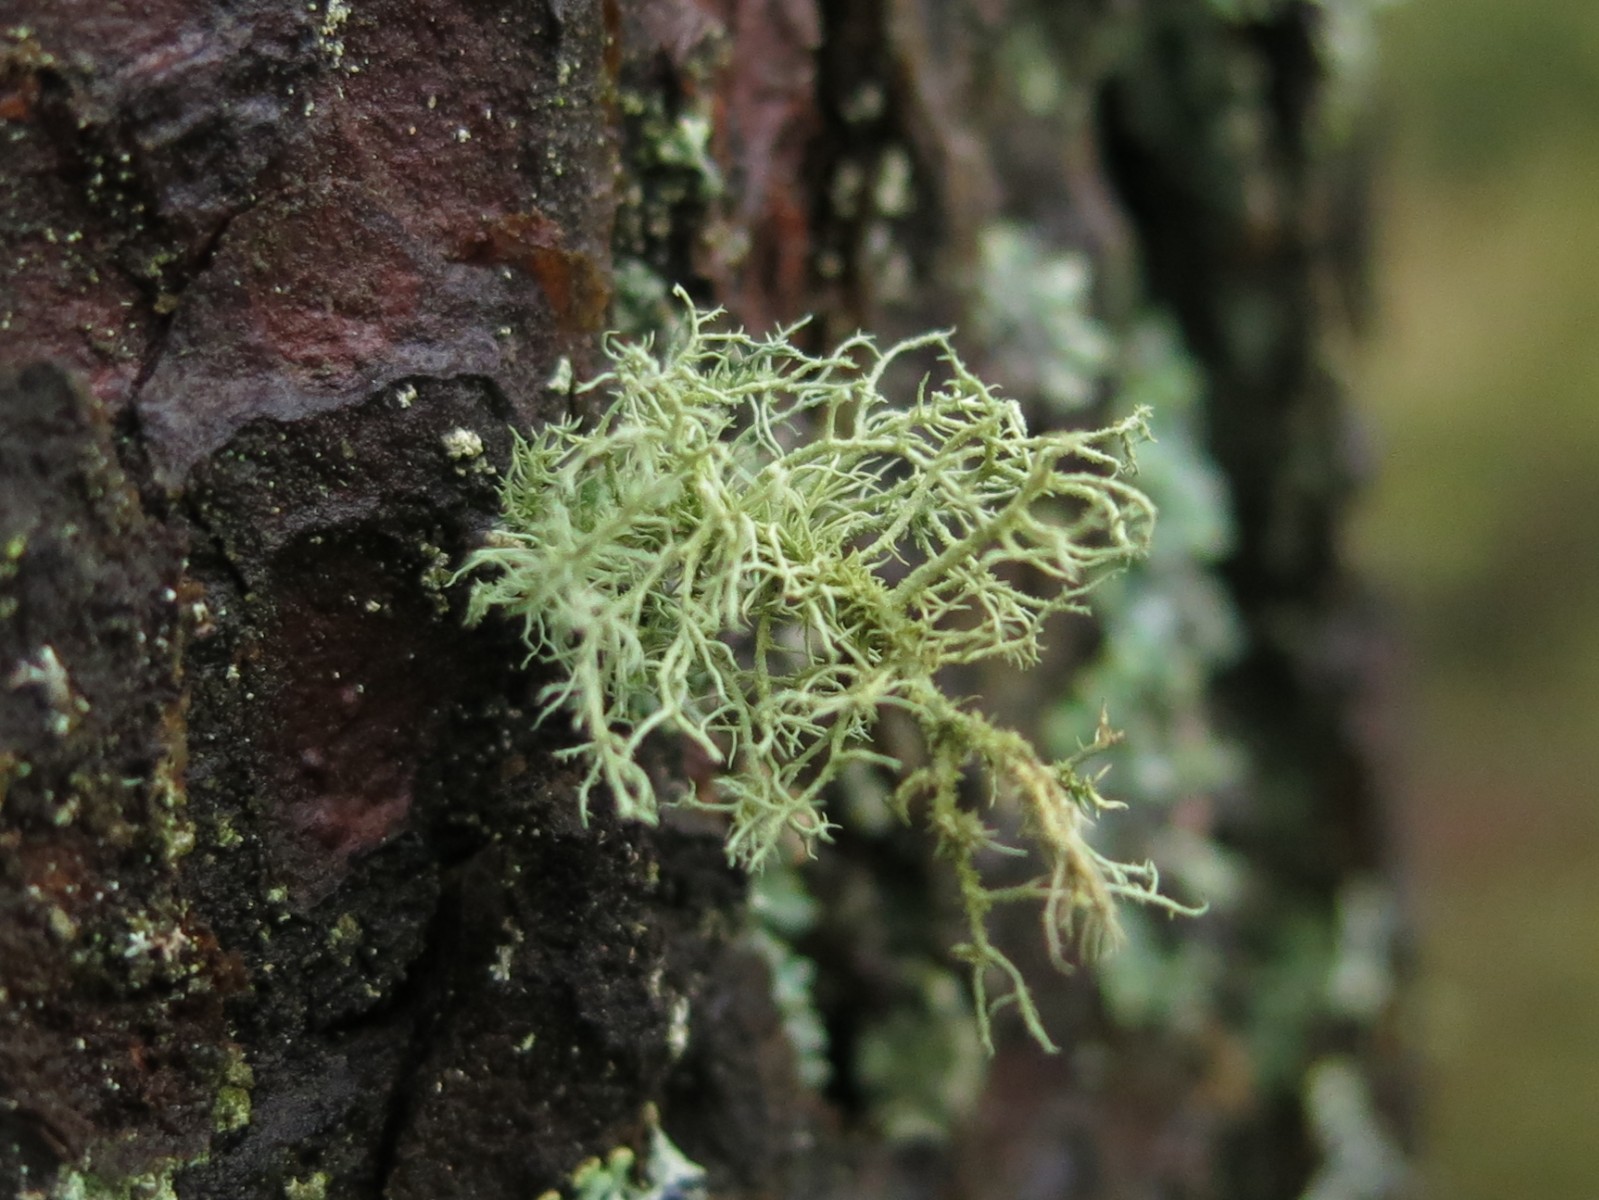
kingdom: Fungi
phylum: Ascomycota
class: Lecanoromycetes
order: Lecanorales
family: Parmeliaceae
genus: Usnea
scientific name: Usnea hirta
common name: liden skæglav
